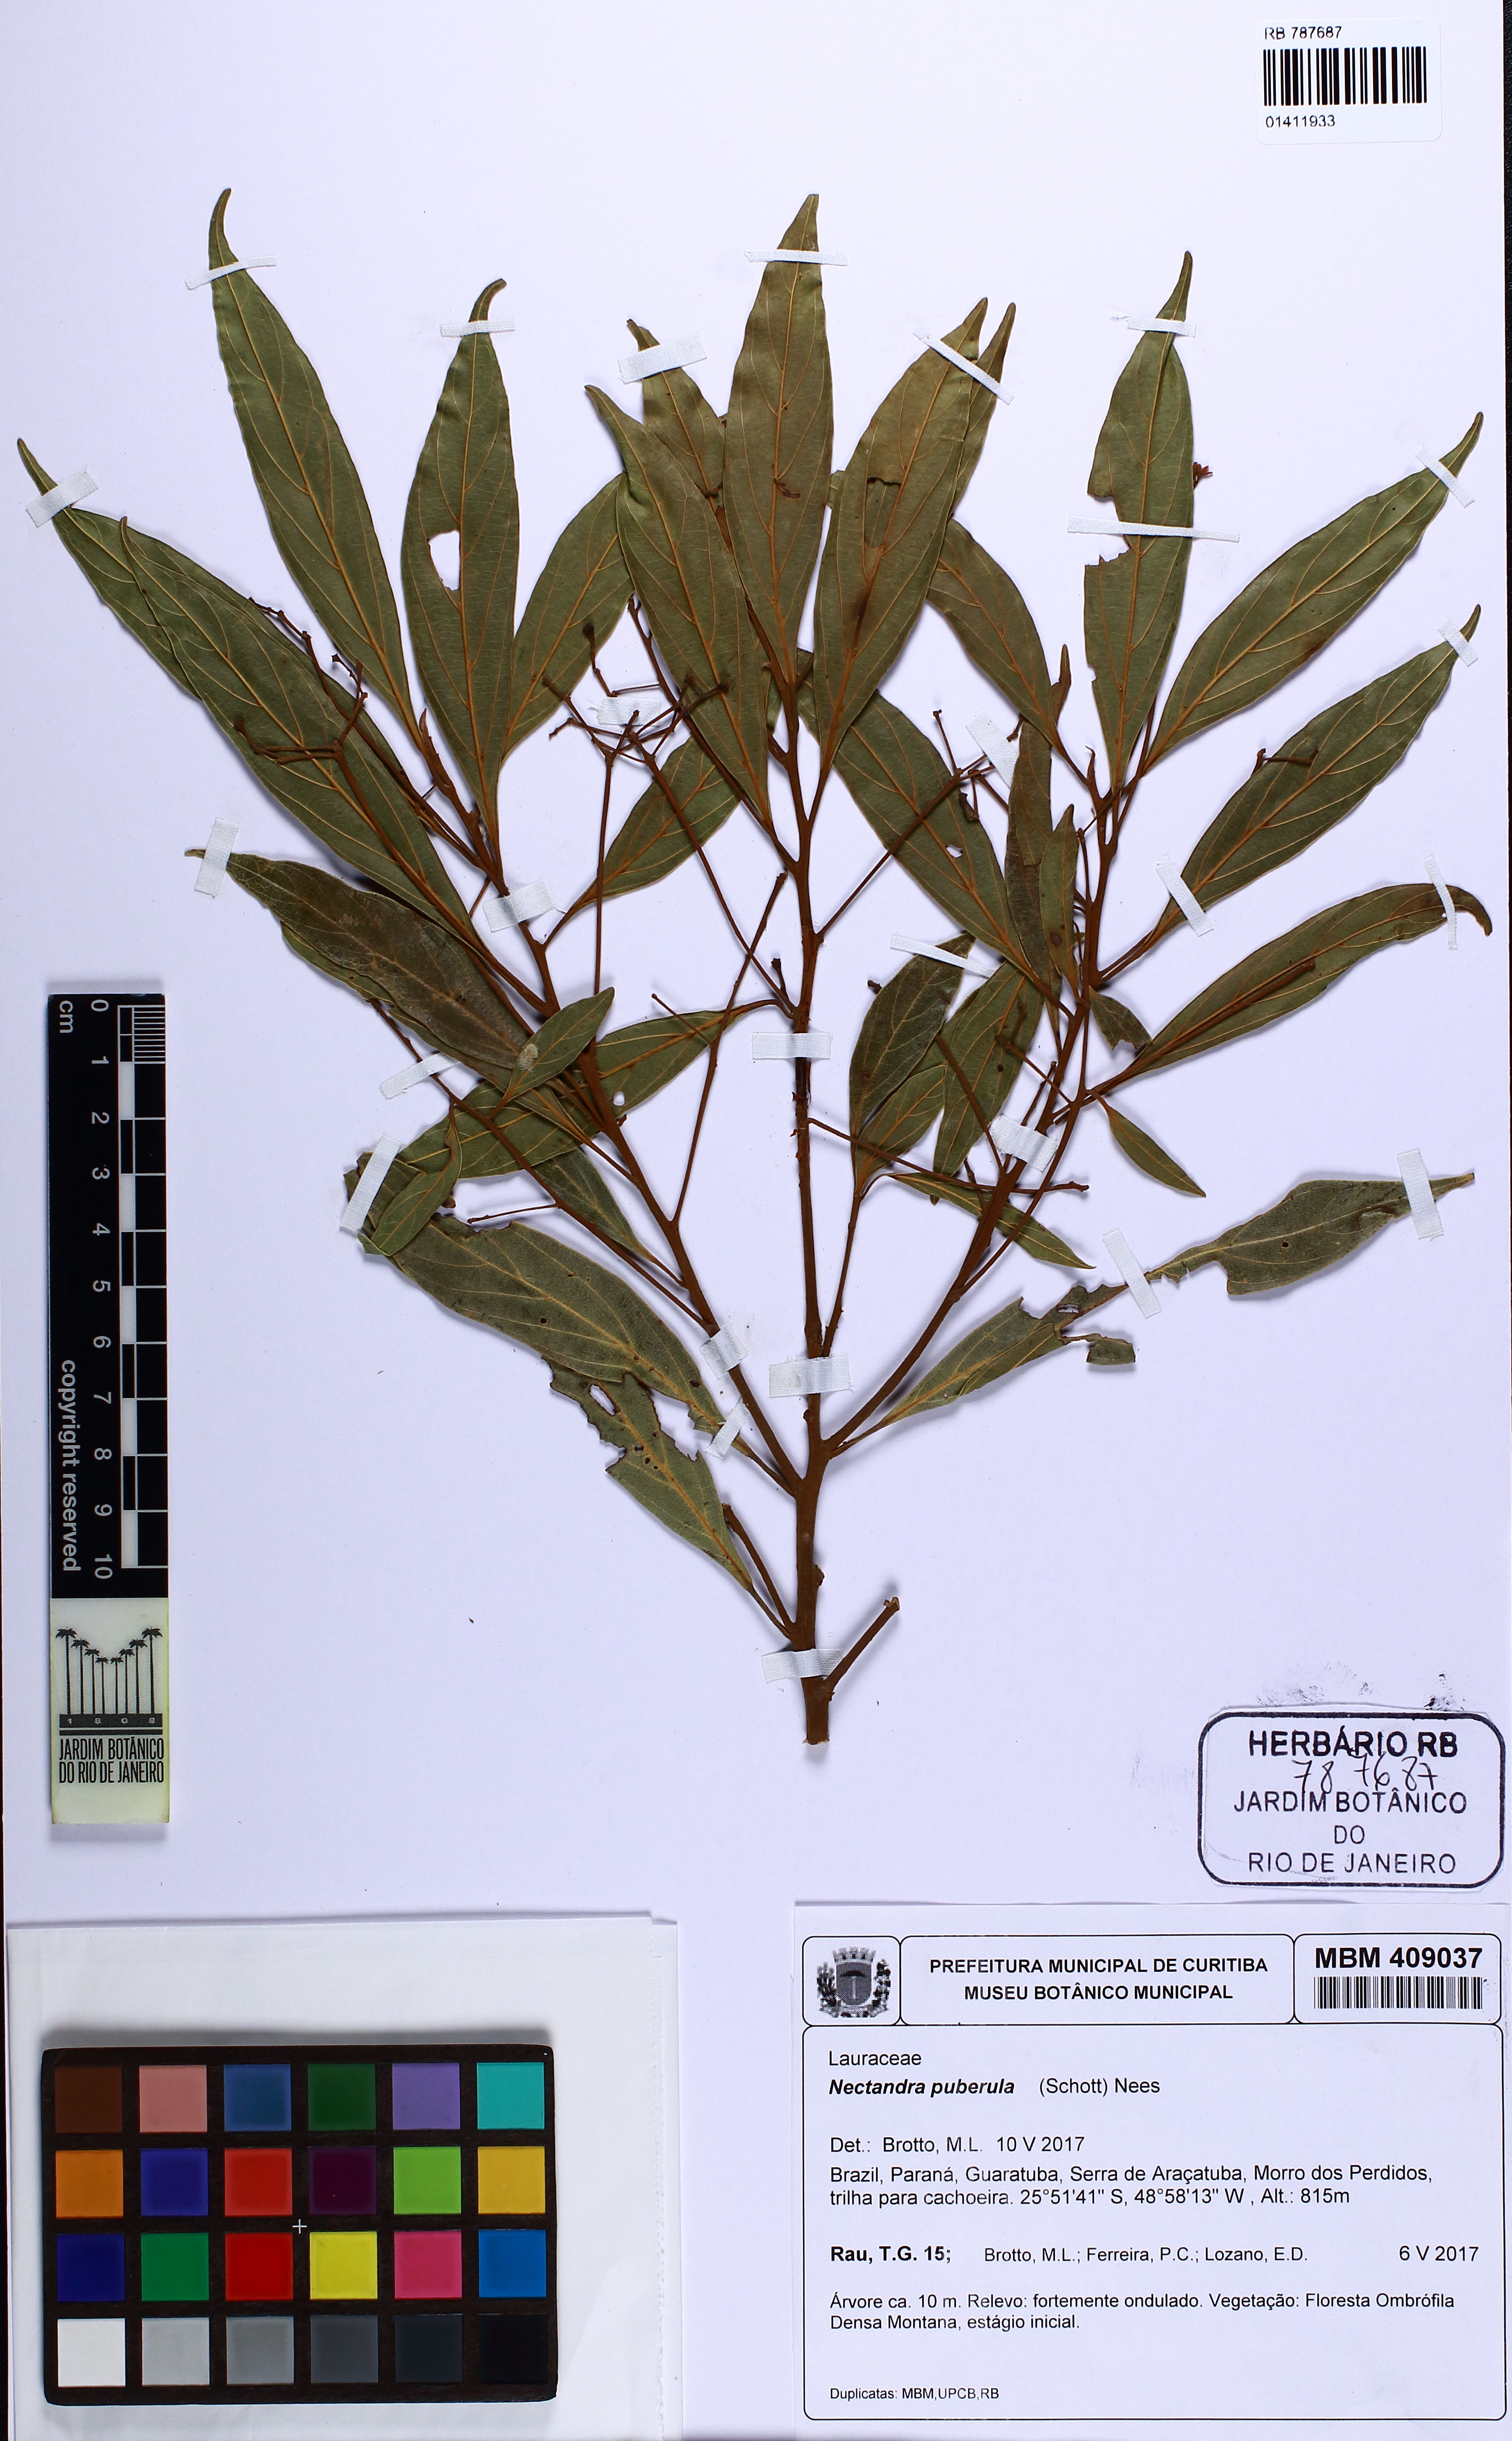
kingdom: Plantae
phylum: Tracheophyta
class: Magnoliopsida
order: Laurales
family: Lauraceae
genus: Nectandra
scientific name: Nectandra puberula
